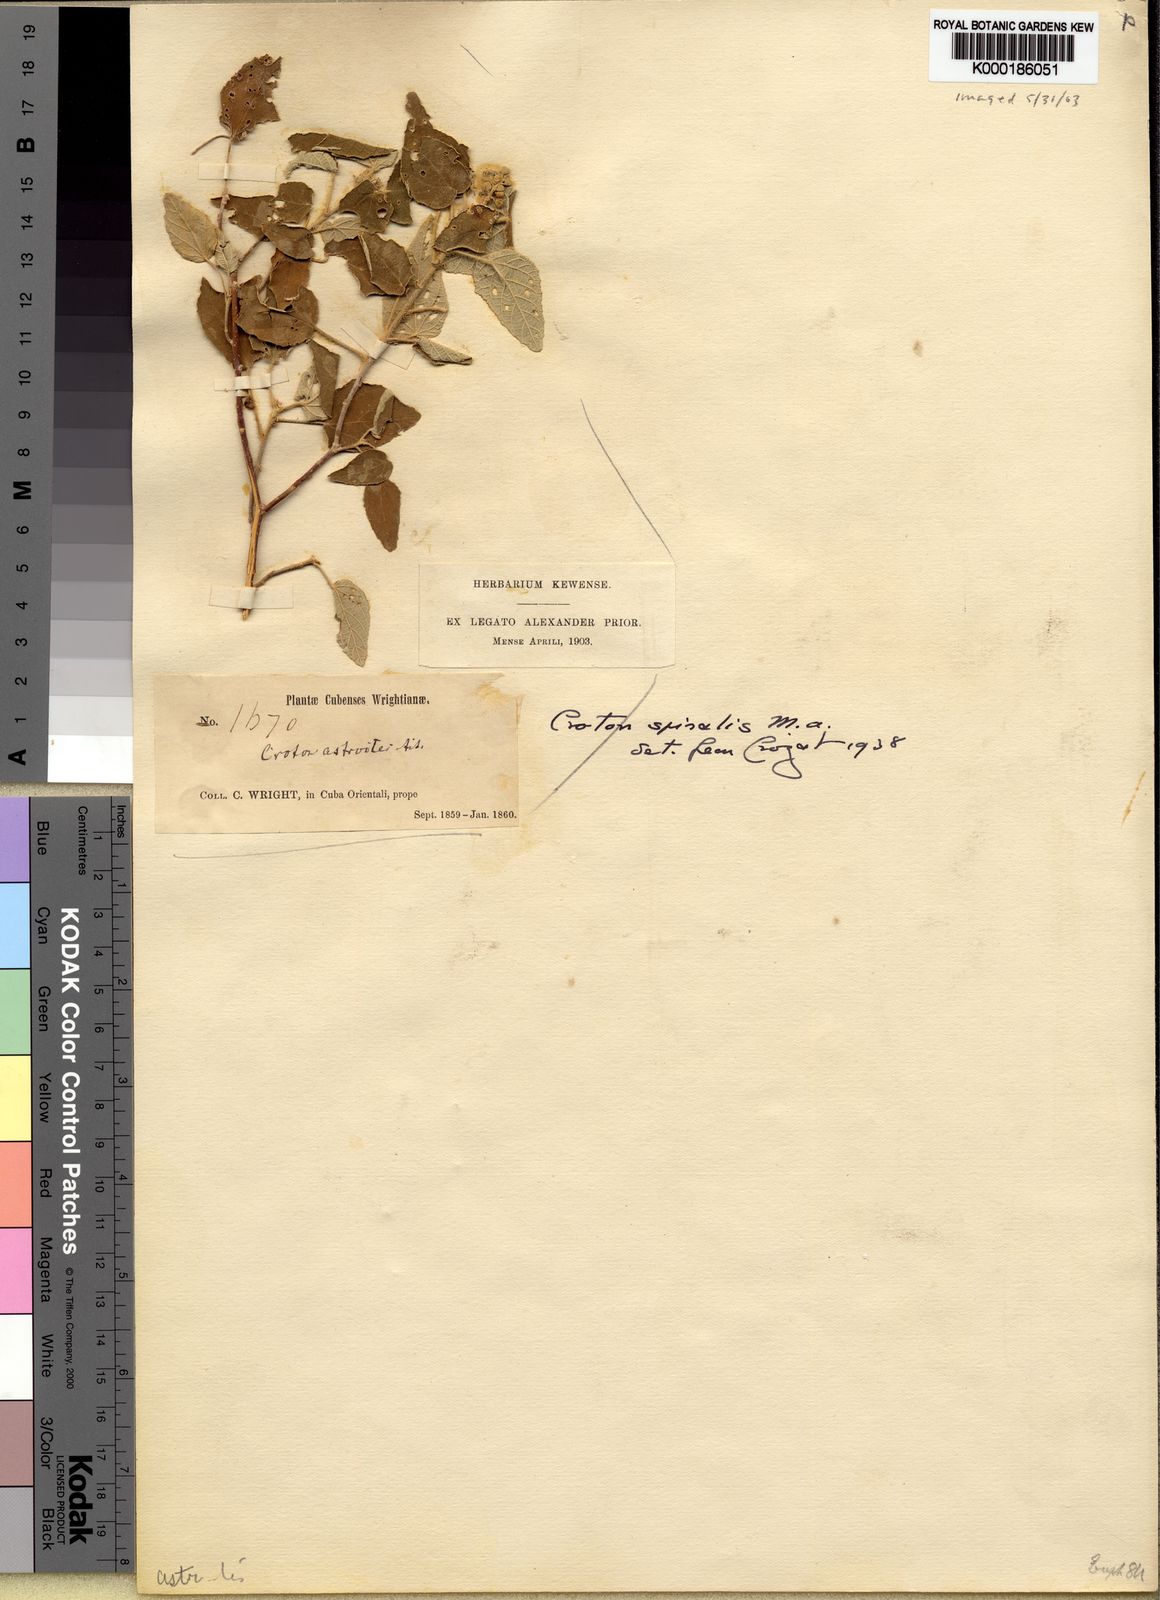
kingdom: Plantae
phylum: Tracheophyta
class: Magnoliopsida
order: Malpighiales
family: Euphorbiaceae
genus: Croton
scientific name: Croton
